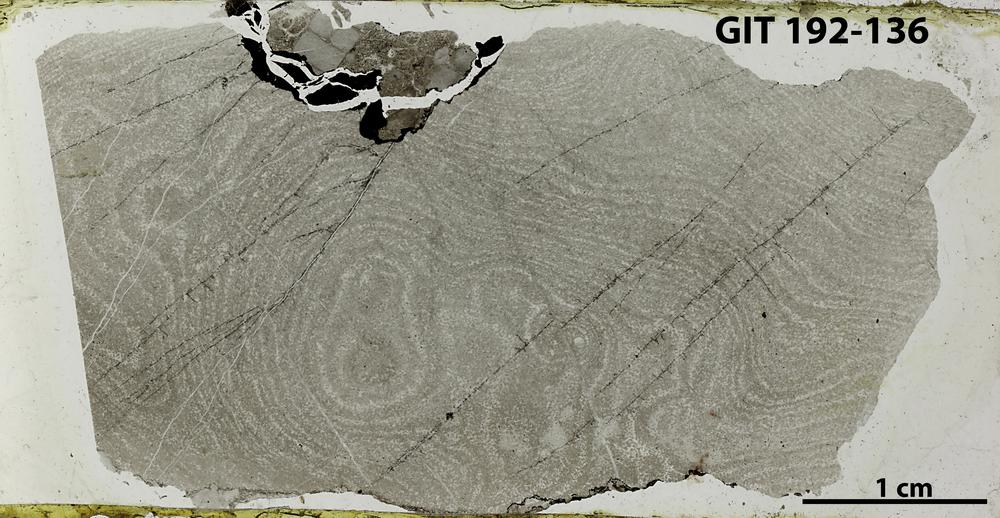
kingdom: Animalia
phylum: Porifera
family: Clathrodictyidae
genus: Clathrodictyon
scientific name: Clathrodictyon
